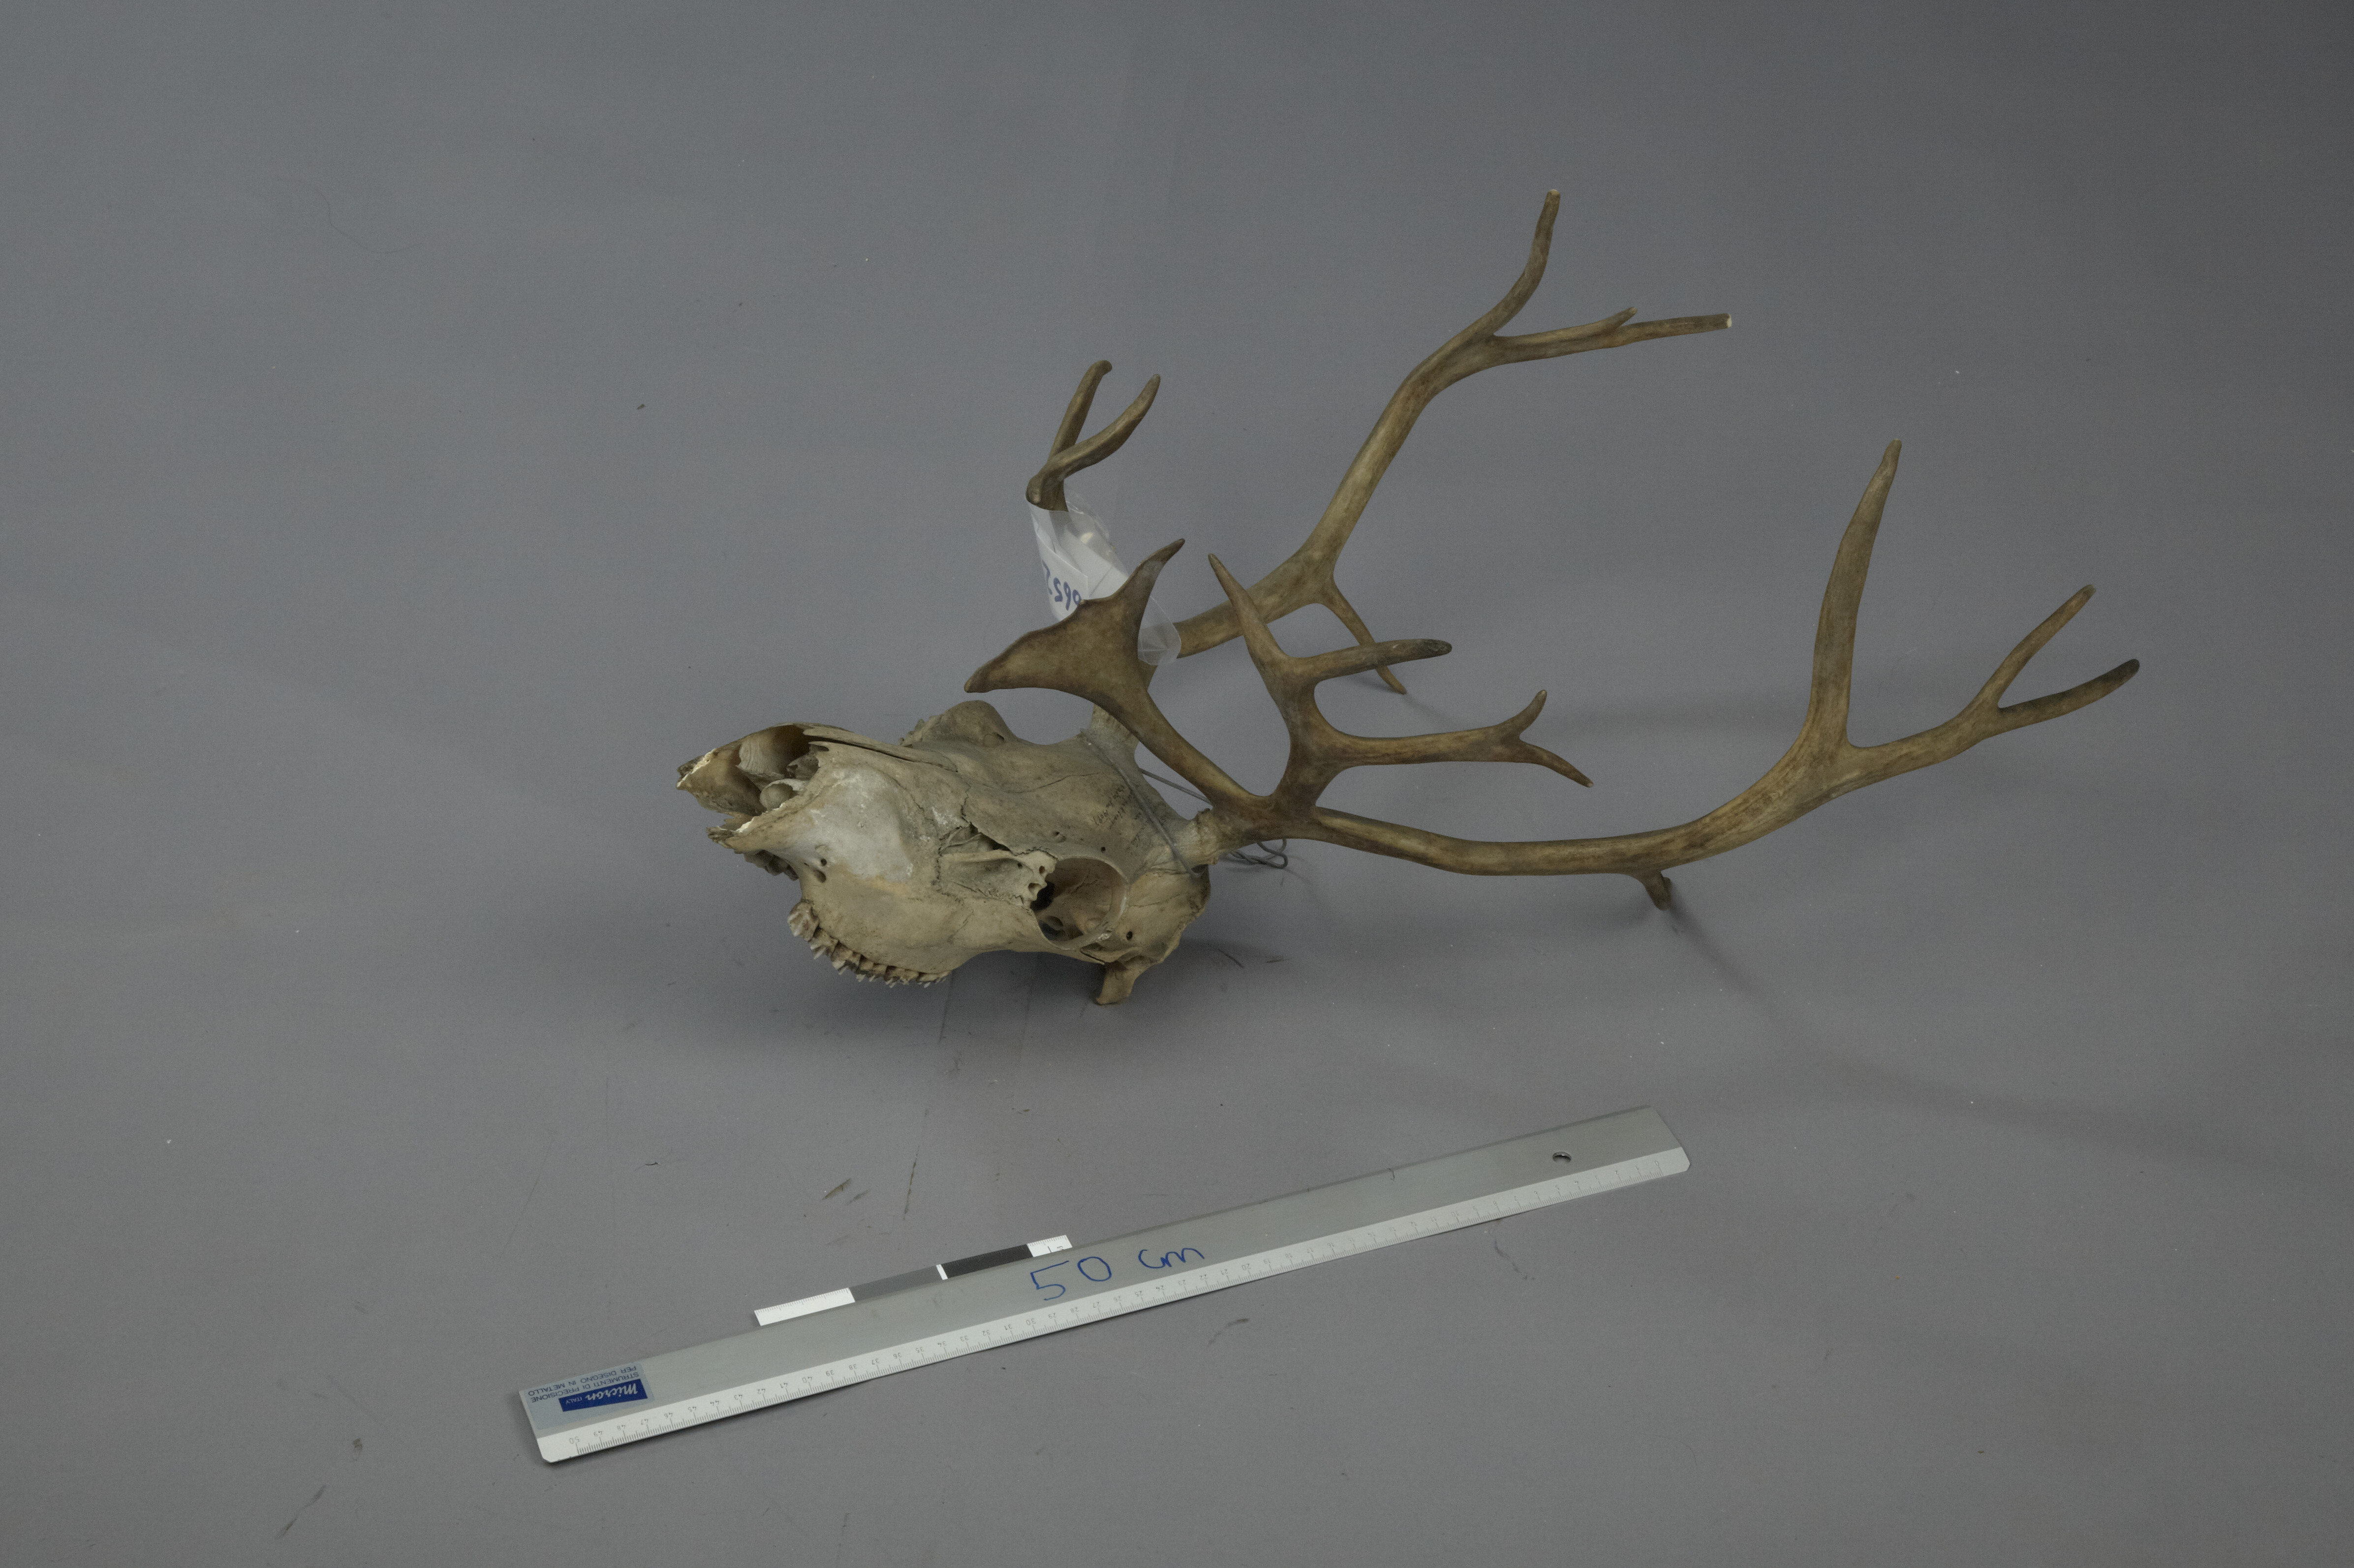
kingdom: Animalia
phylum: Chordata
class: Mammalia
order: Artiodactyla
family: Cervidae
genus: Rangifer
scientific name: Rangifer tarandus
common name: Reindeer
